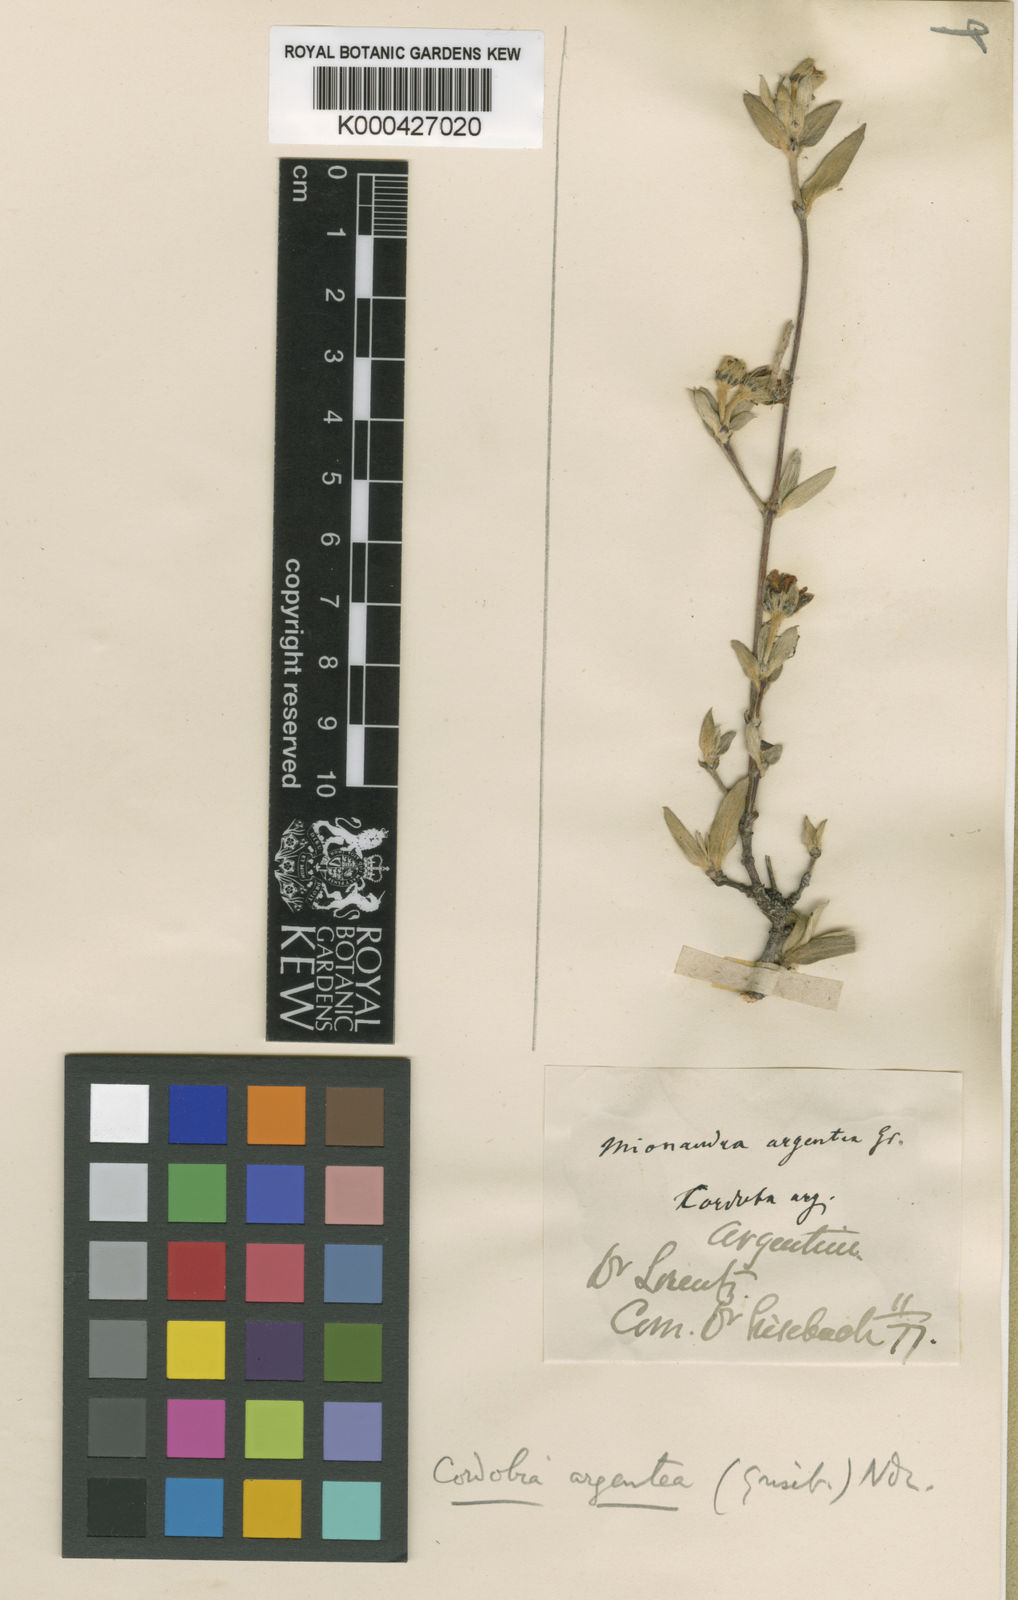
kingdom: Plantae
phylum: Tracheophyta
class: Magnoliopsida
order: Malpighiales
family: Malpighiaceae
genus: Cordobia
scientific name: Cordobia argentea
